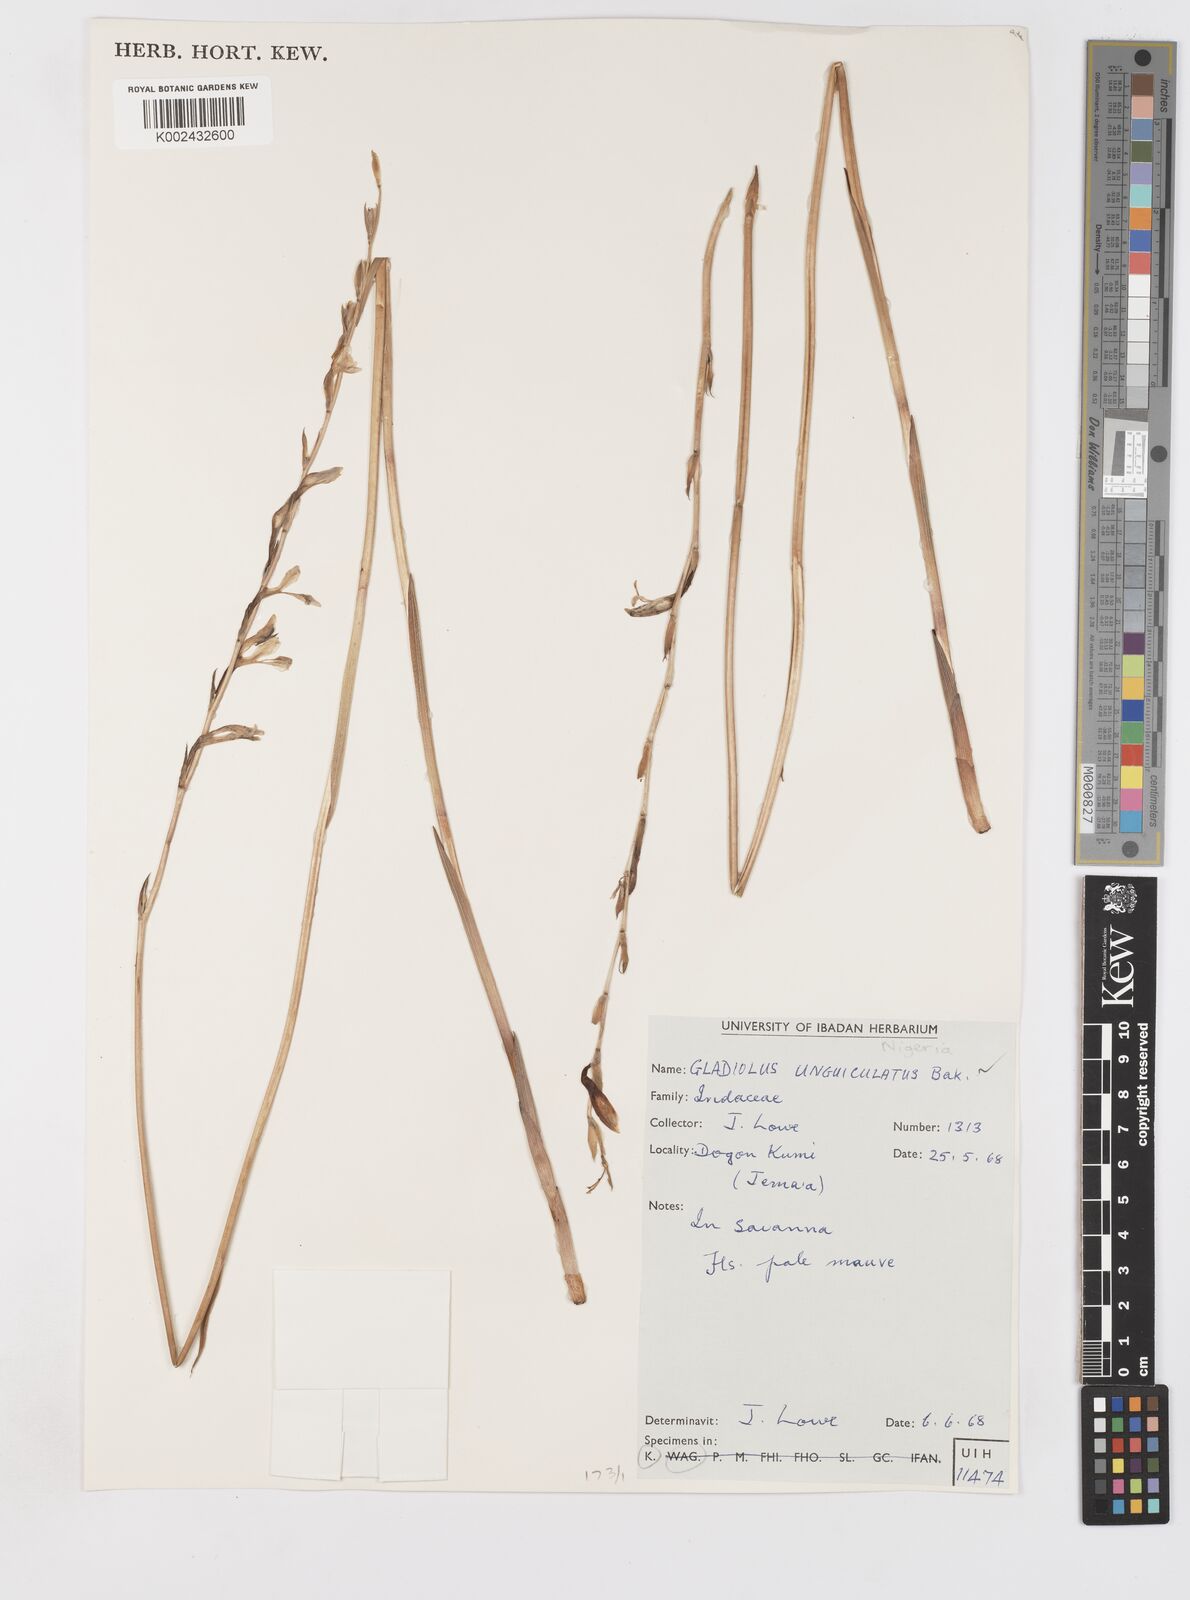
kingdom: Plantae
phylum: Tracheophyta
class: Liliopsida
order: Asparagales
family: Iridaceae
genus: Gladiolus
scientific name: Gladiolus unguiculatus
